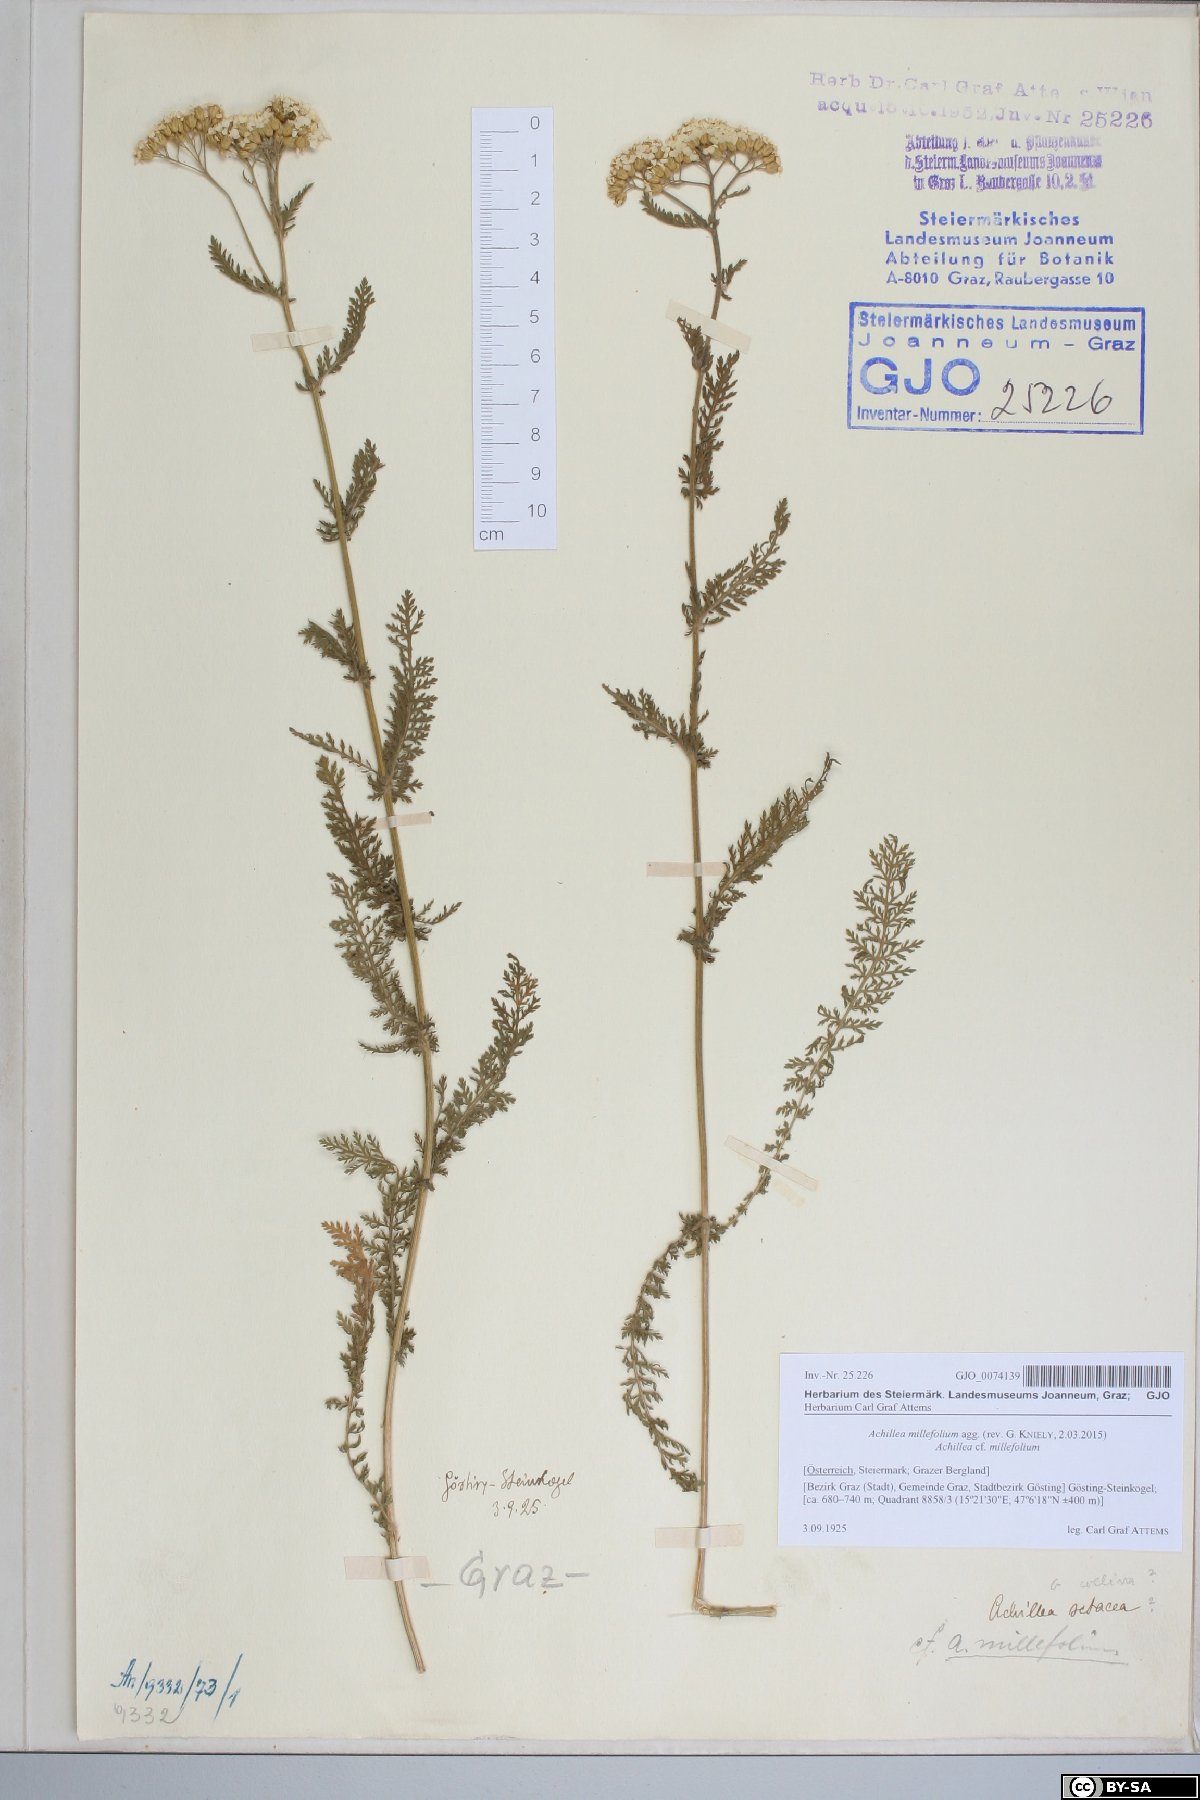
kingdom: Plantae
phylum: Tracheophyta
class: Magnoliopsida
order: Asterales
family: Asteraceae
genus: Achillea
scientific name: Achillea millefolium
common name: Yarrow
